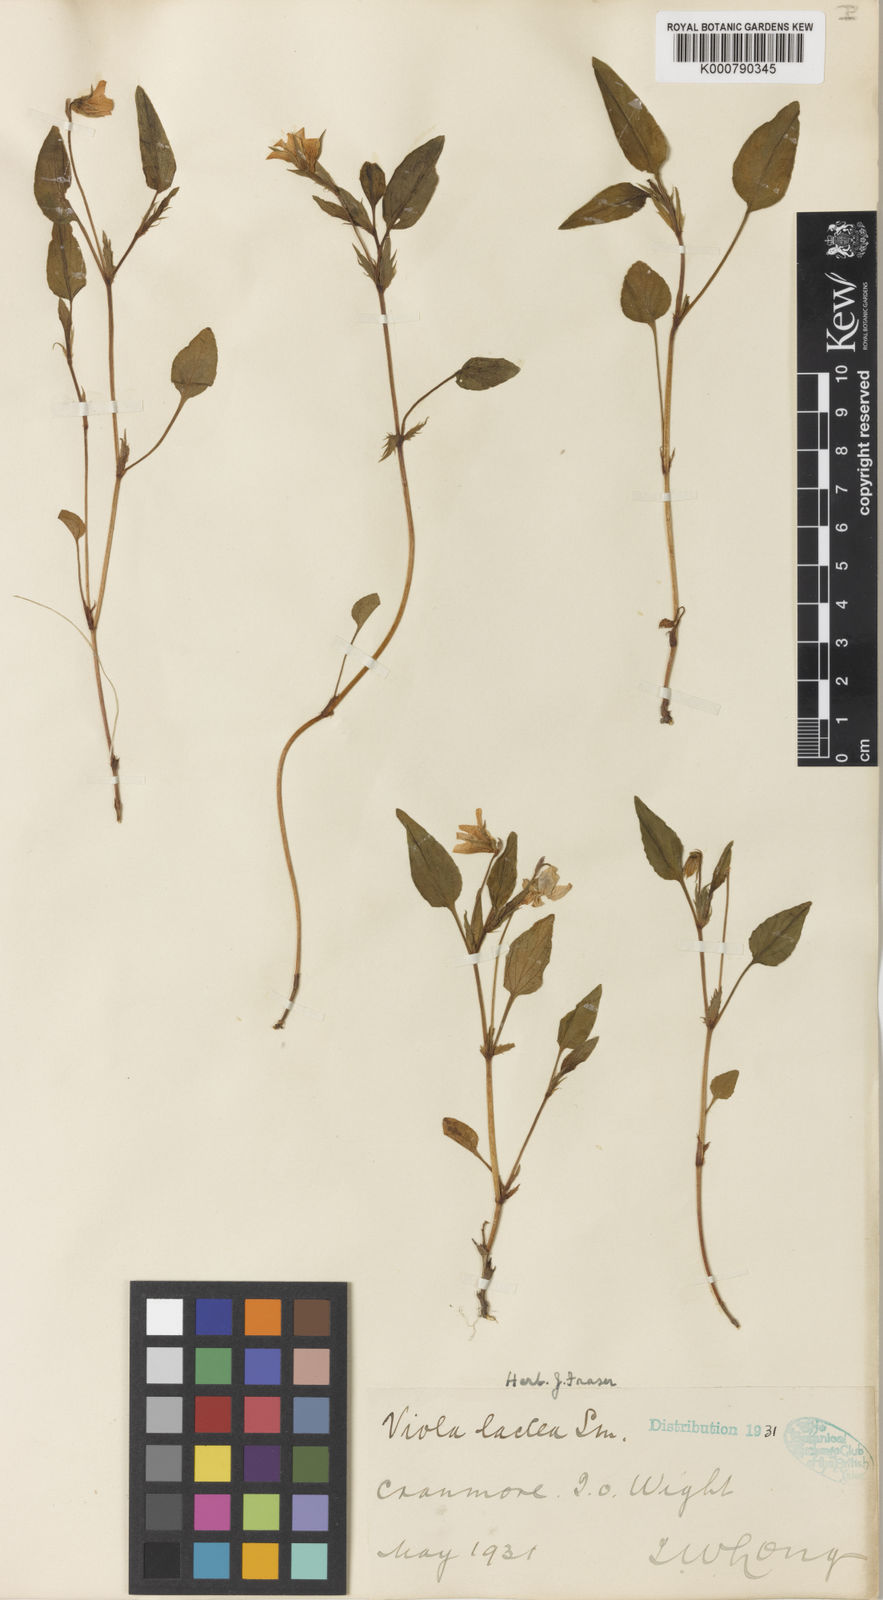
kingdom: Plantae
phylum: Tracheophyta
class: Magnoliopsida
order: Malpighiales
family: Violaceae
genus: Viola
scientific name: Viola lactea
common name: Pale dog-violet
